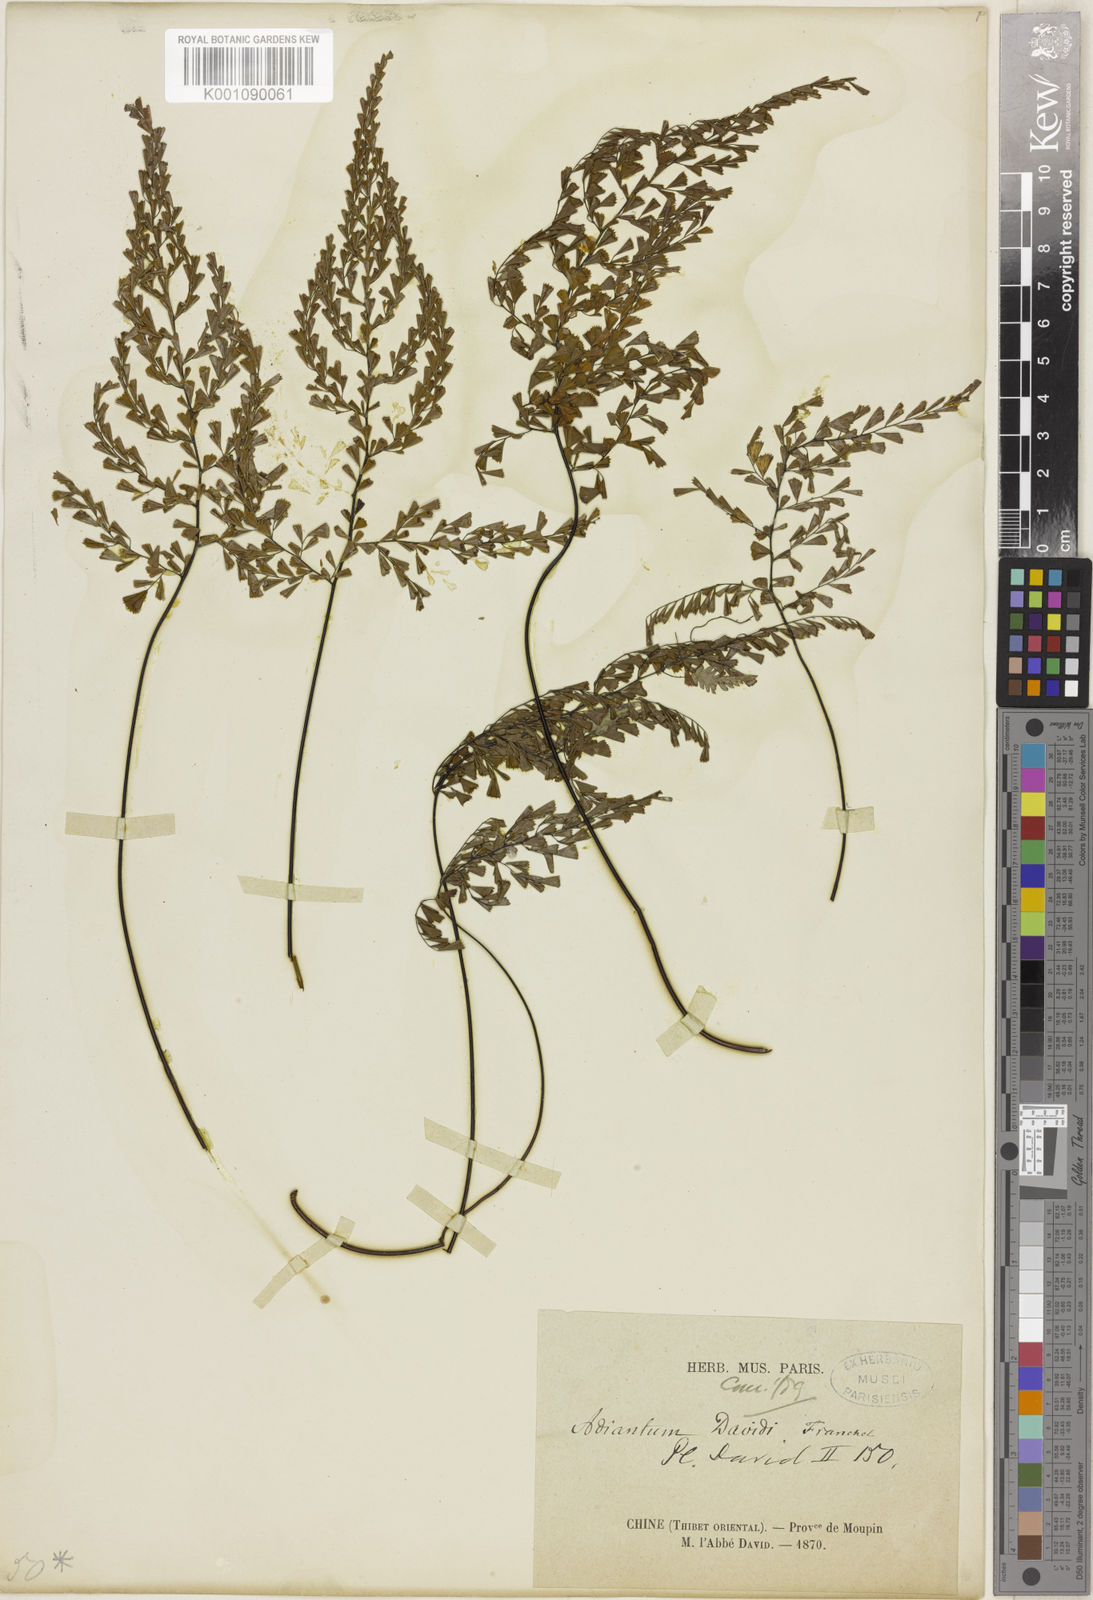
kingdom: Plantae
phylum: Tracheophyta
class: Polypodiopsida
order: Polypodiales
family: Pteridaceae
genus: Adiantum
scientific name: Adiantum davidii
